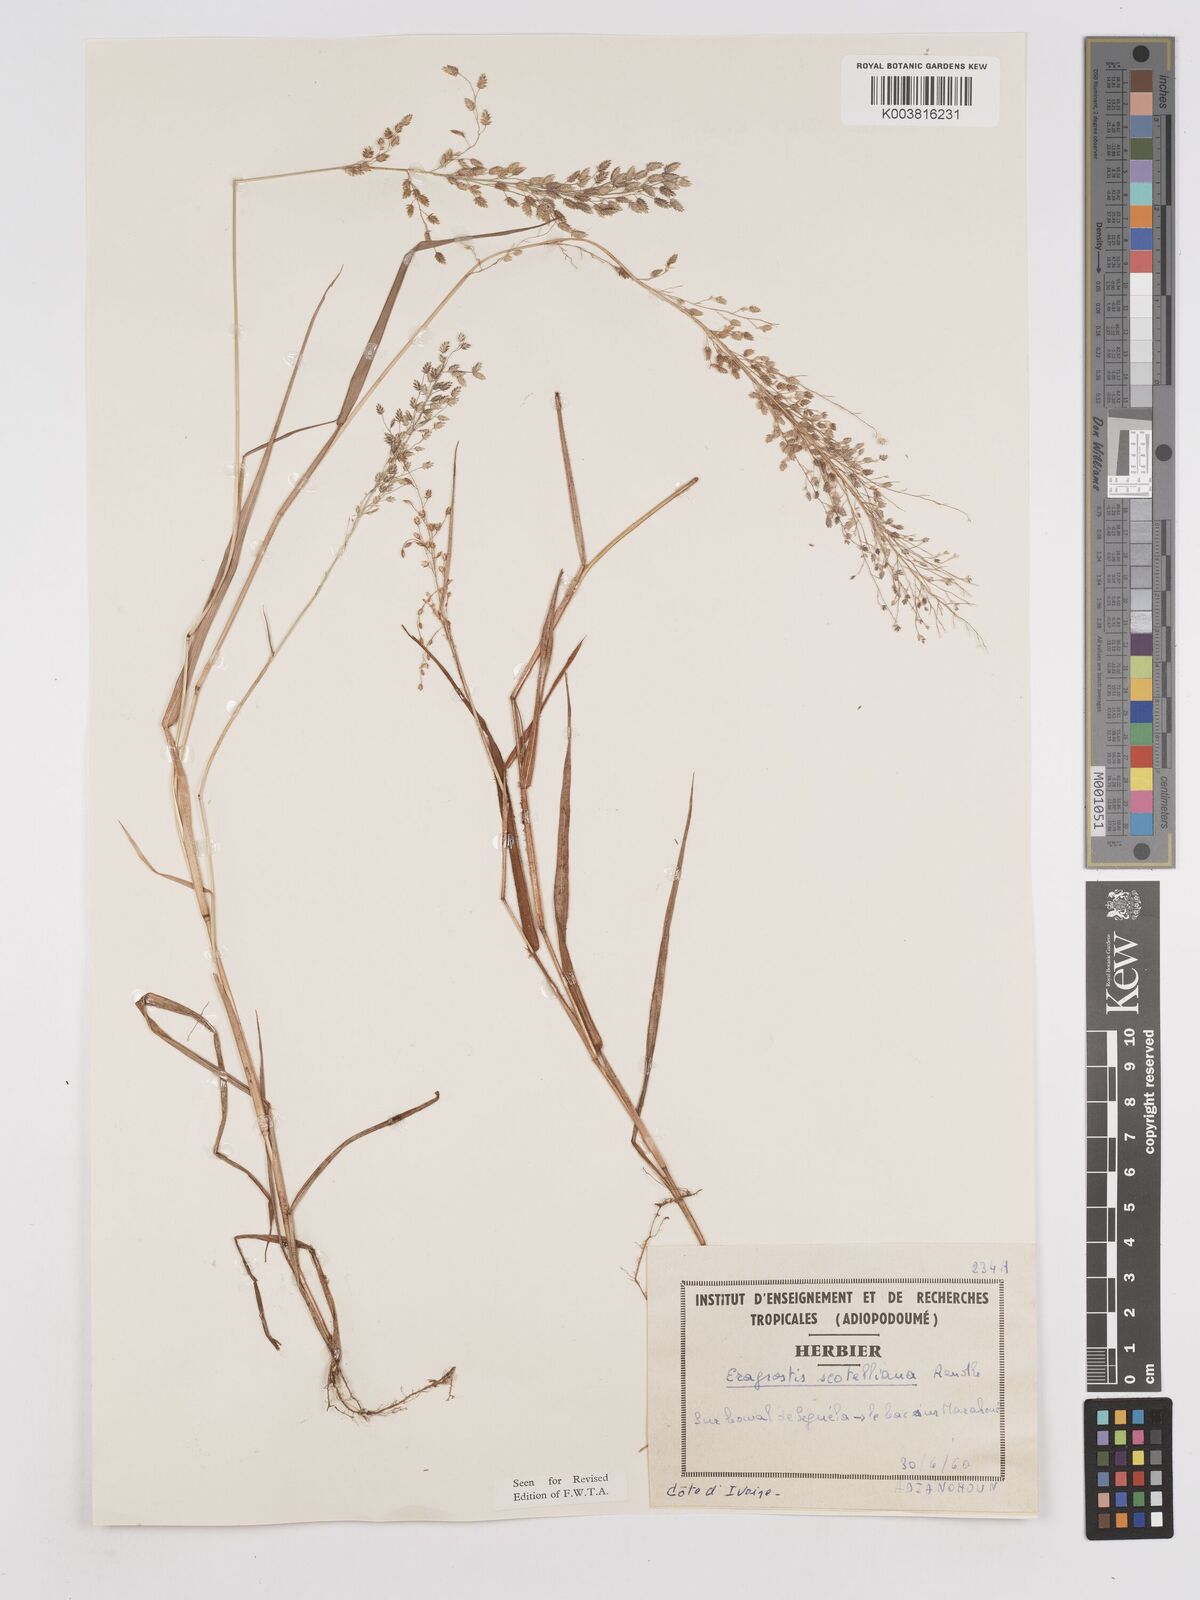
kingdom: Plantae
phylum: Tracheophyta
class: Liliopsida
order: Poales
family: Poaceae
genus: Eragrostis
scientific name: Eragrostis scotelliana
